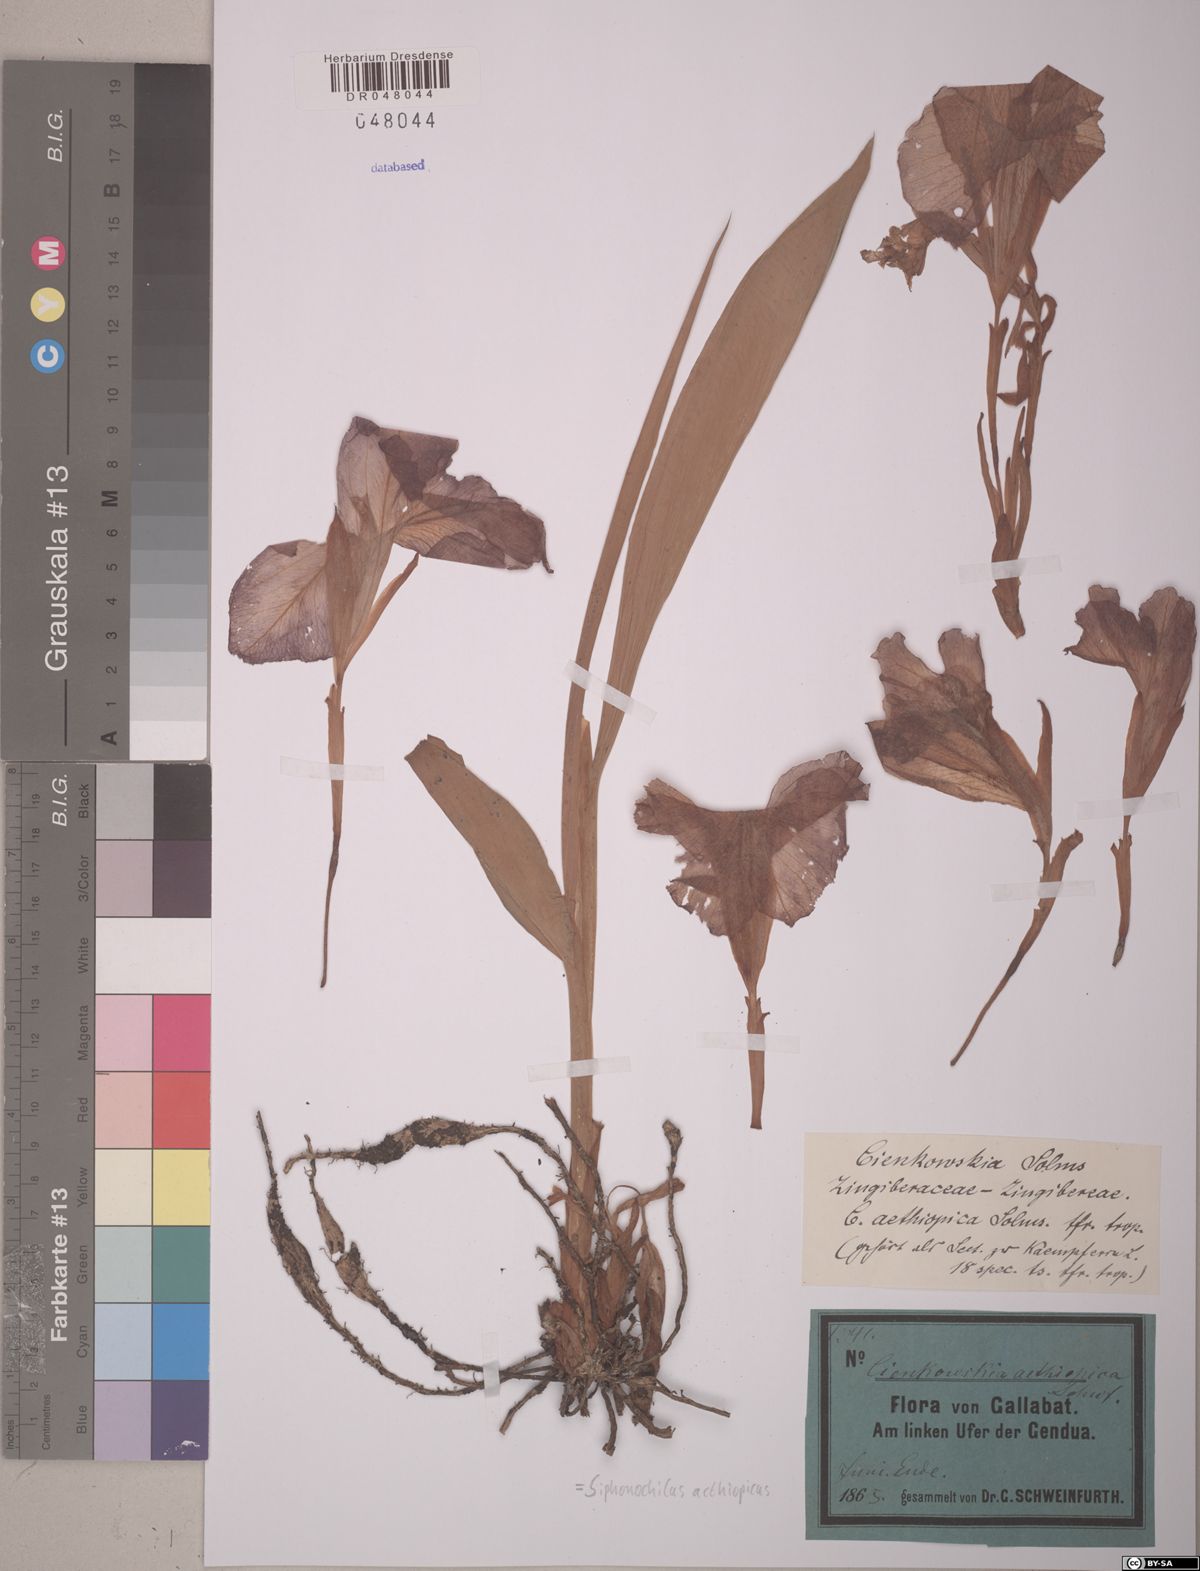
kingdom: Plantae
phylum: Tracheophyta
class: Liliopsida
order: Zingiberales
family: Zingiberaceae
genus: Siphonochilus
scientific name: Siphonochilus aethiopicus
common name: African-ginger
